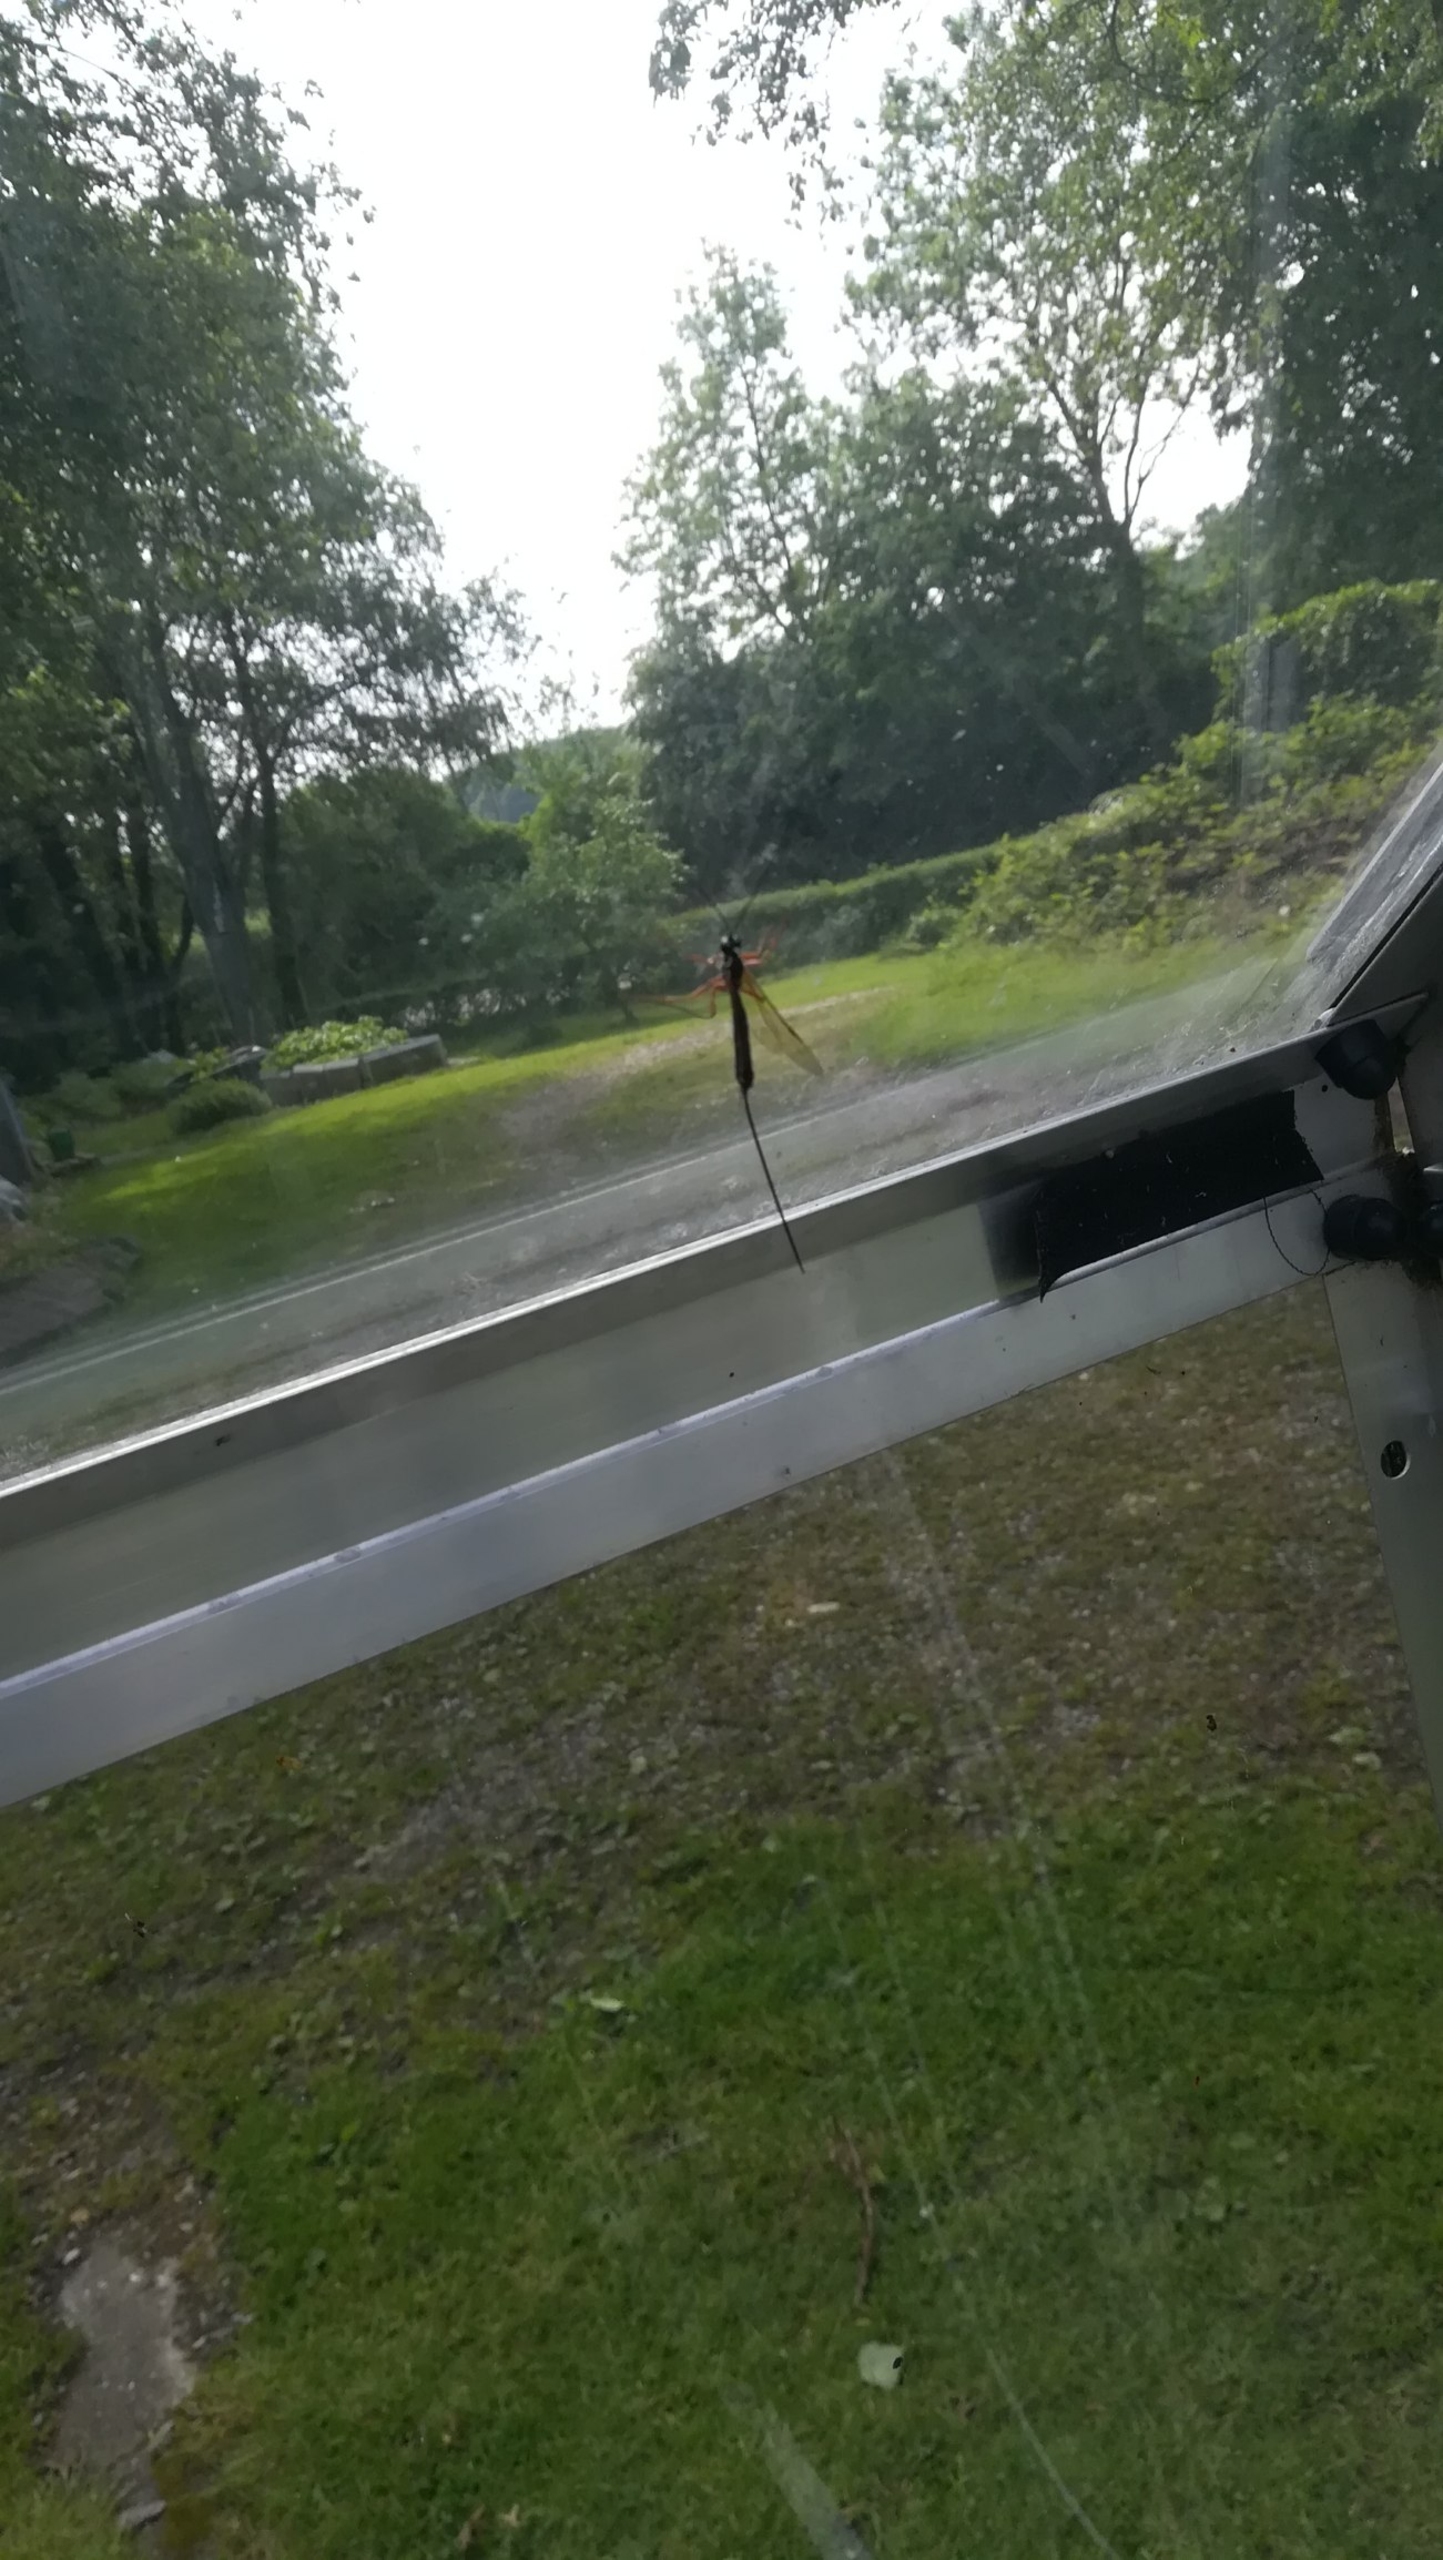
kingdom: Animalia
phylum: Arthropoda
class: Insecta
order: Hymenoptera
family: Ichneumonidae
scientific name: Ichneumonidae
